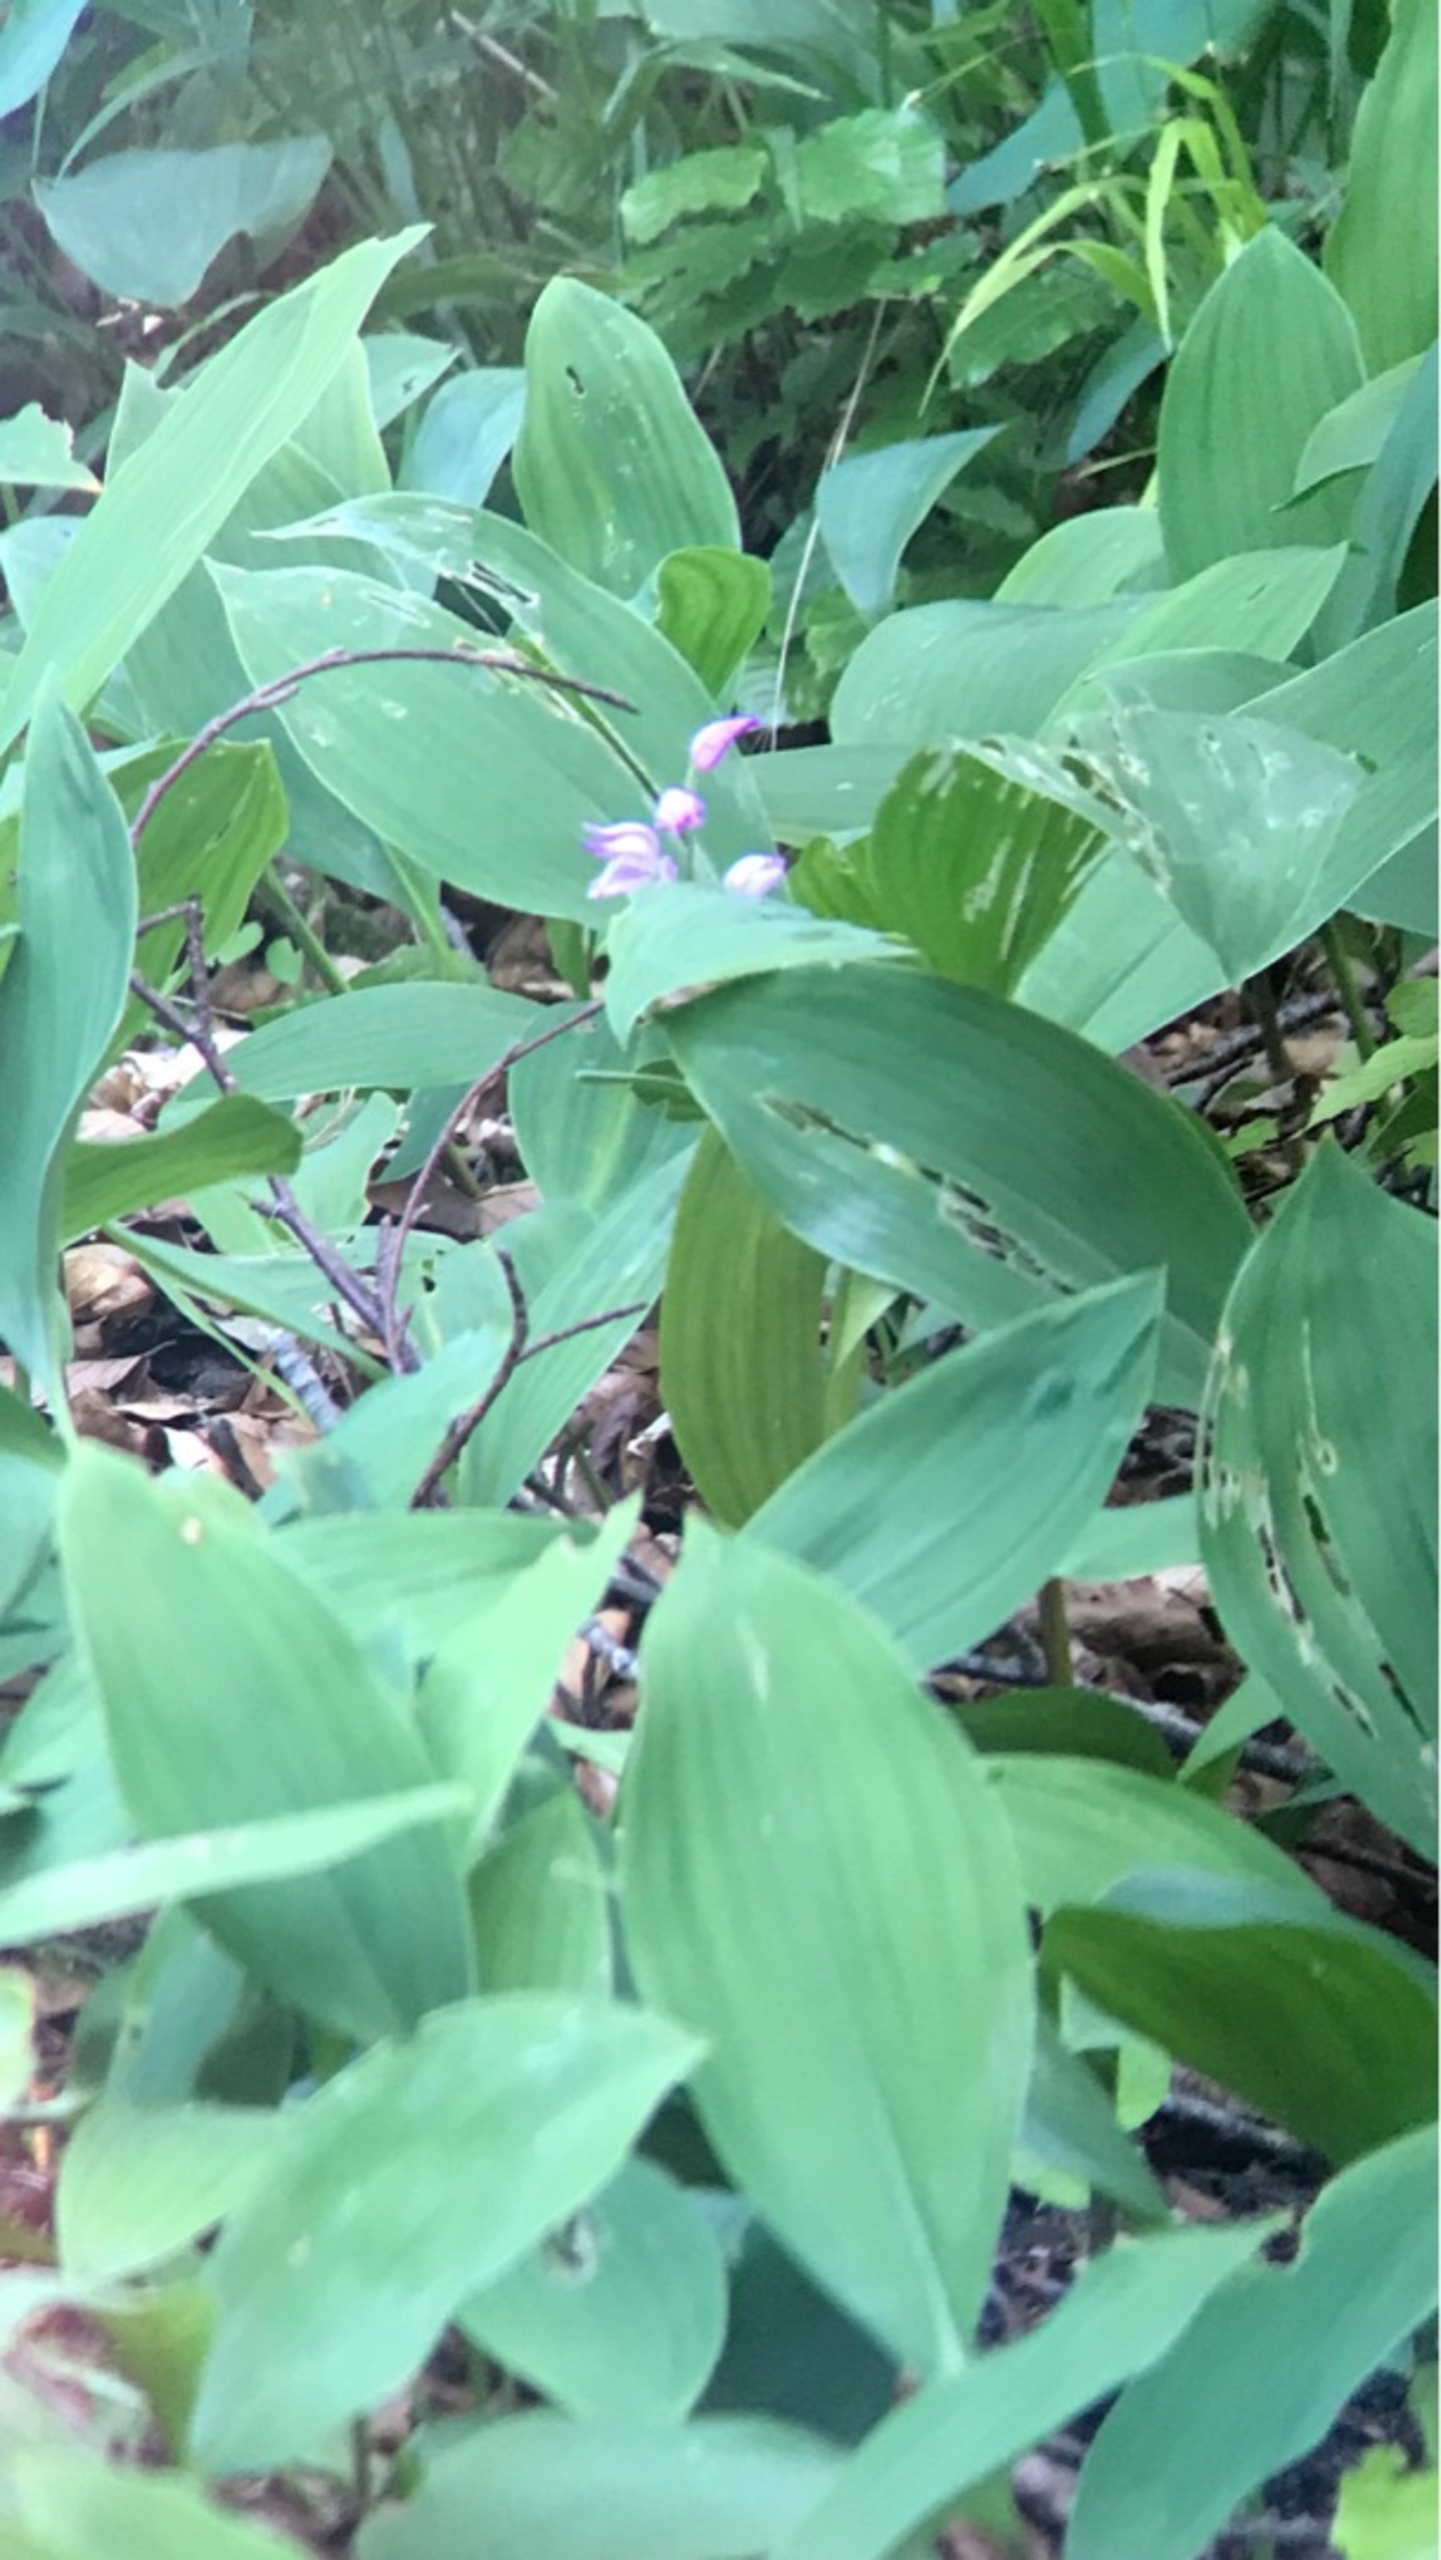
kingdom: Plantae
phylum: Tracheophyta
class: Liliopsida
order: Asparagales
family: Orchidaceae
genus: Cephalanthera
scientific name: Cephalanthera rubra
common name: Rød skovlilje
